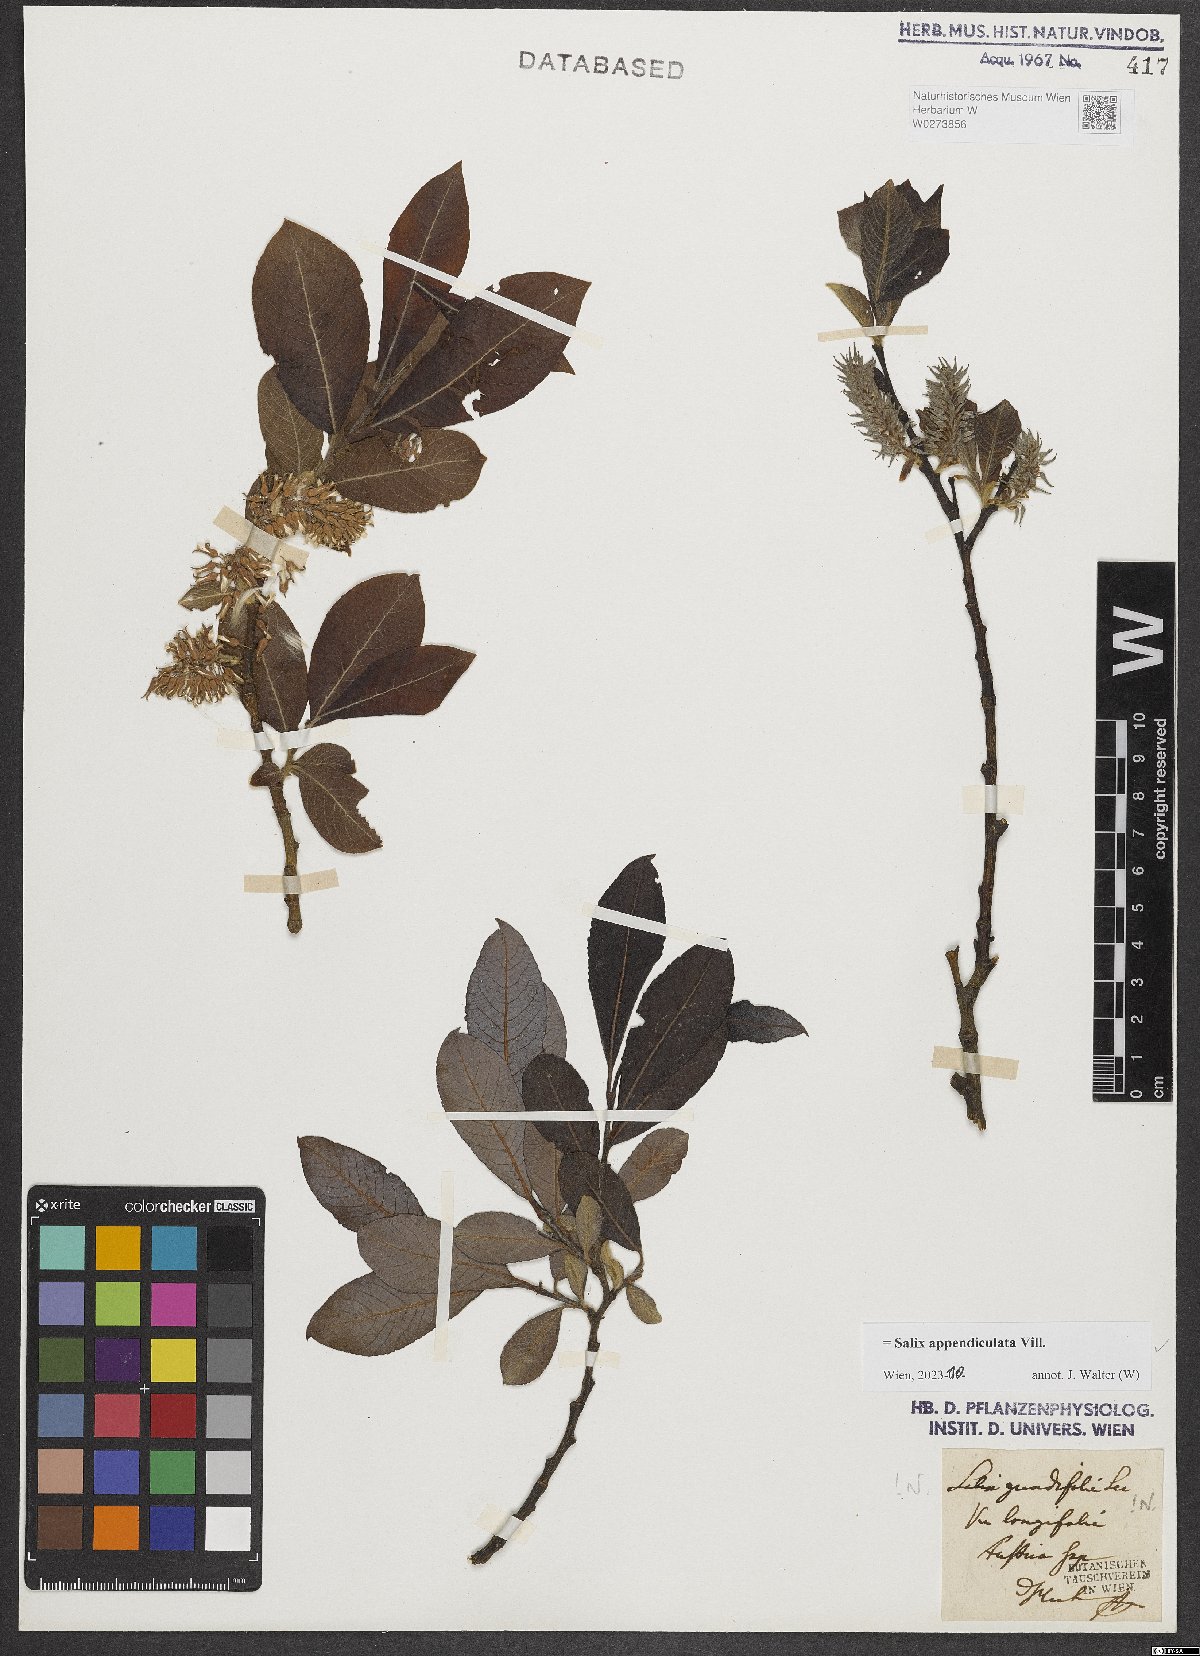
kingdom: Plantae
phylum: Tracheophyta
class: Magnoliopsida
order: Malpighiales
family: Salicaceae
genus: Salix
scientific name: Salix appendiculata
